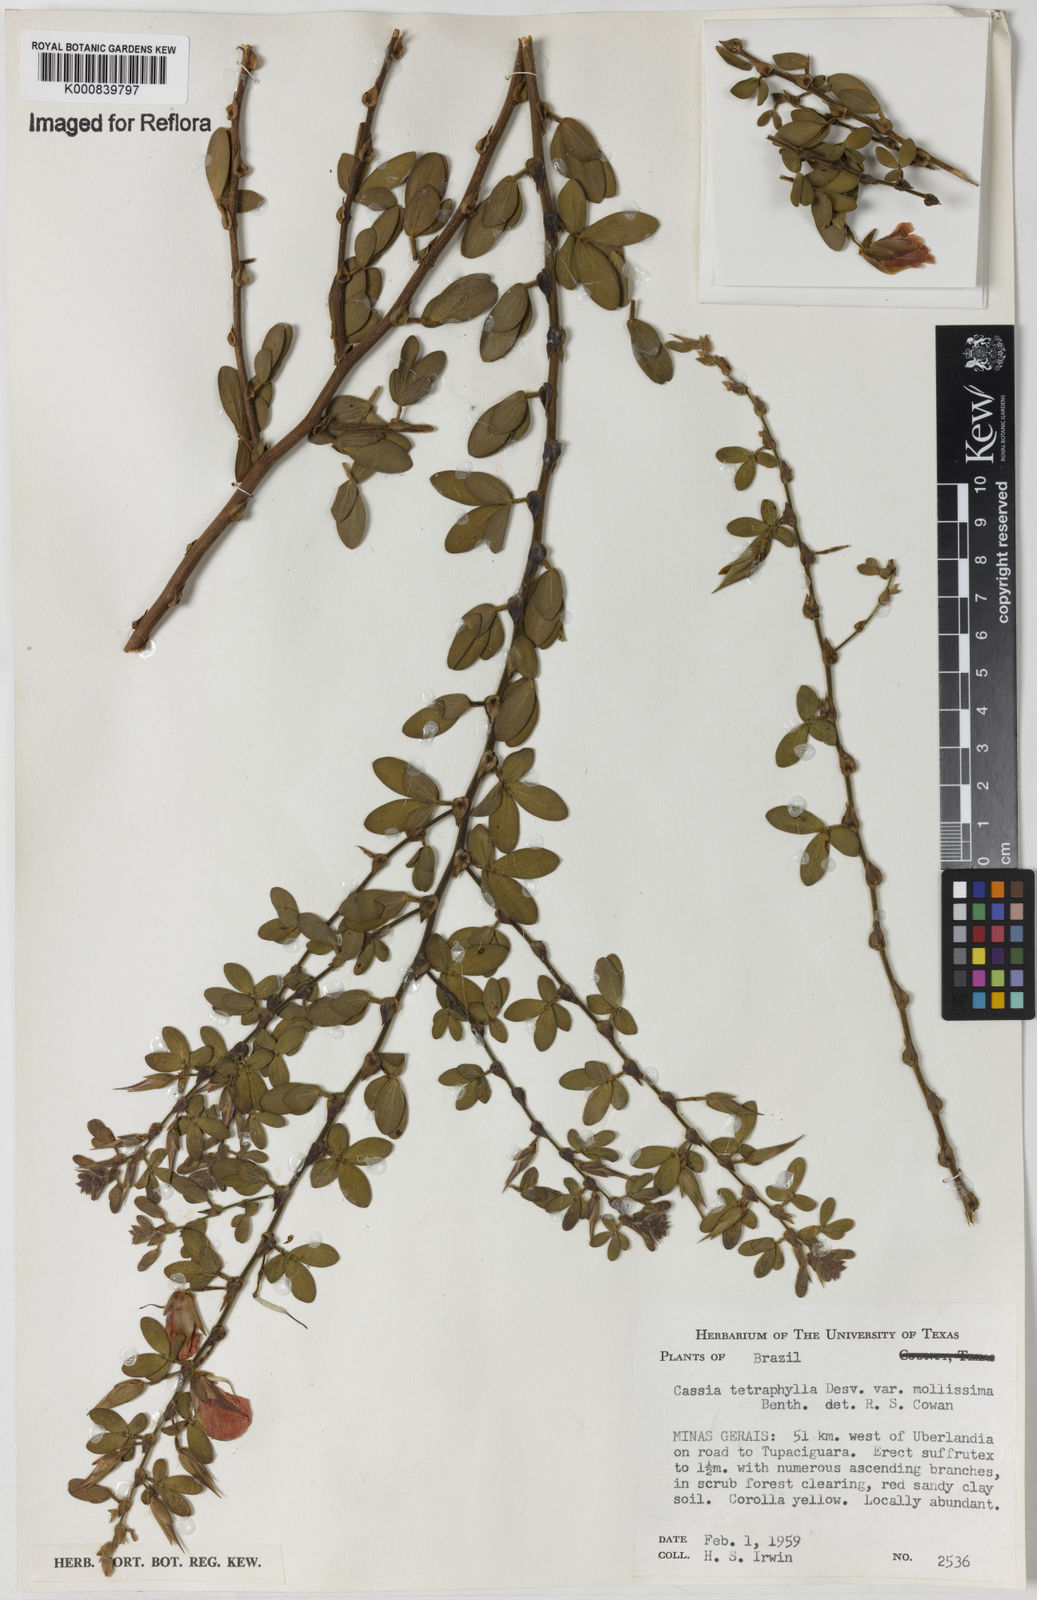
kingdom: Plantae
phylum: Tracheophyta
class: Magnoliopsida
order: Fabales
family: Fabaceae
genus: Chamaecrista
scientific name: Chamaecrista
